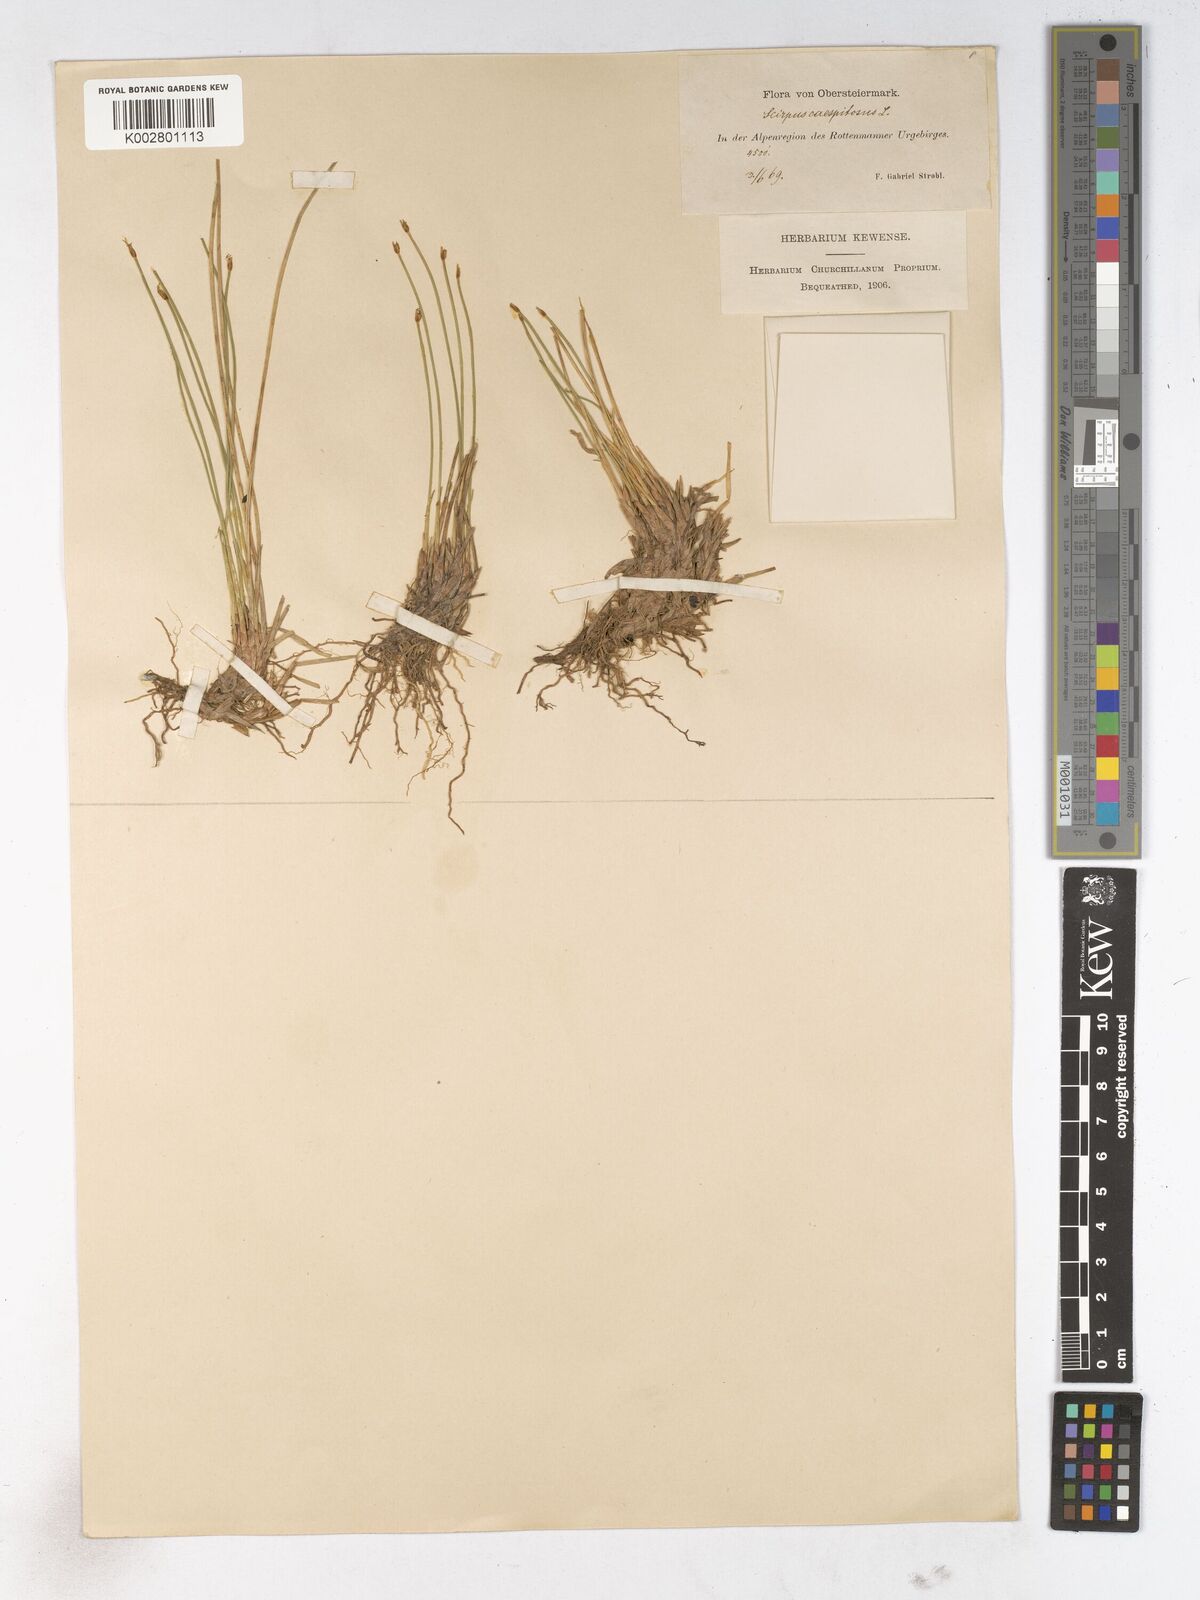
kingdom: Plantae
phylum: Tracheophyta
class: Liliopsida
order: Poales
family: Cyperaceae
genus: Trichophorum
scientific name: Trichophorum cespitosum
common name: Cespitose bulrush
